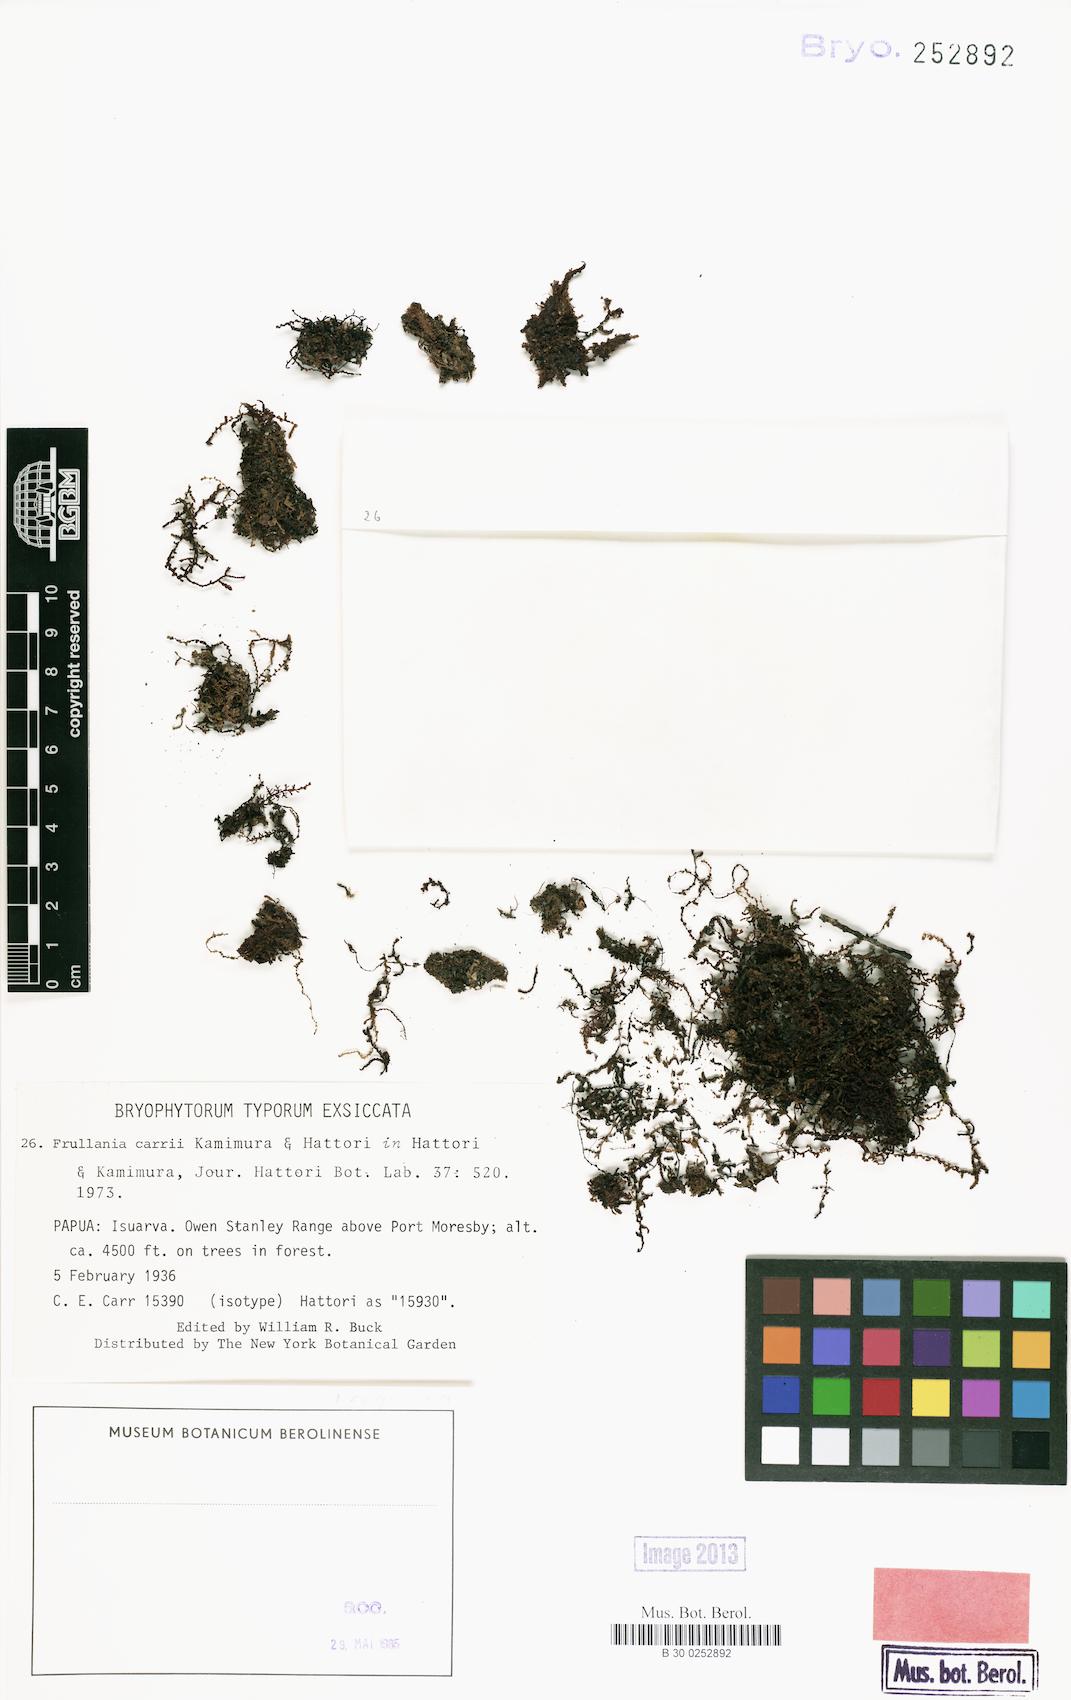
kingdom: Plantae
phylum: Marchantiophyta
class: Jungermanniopsida
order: Porellales
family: Frullaniaceae
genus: Frullania
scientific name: Frullania carrii
